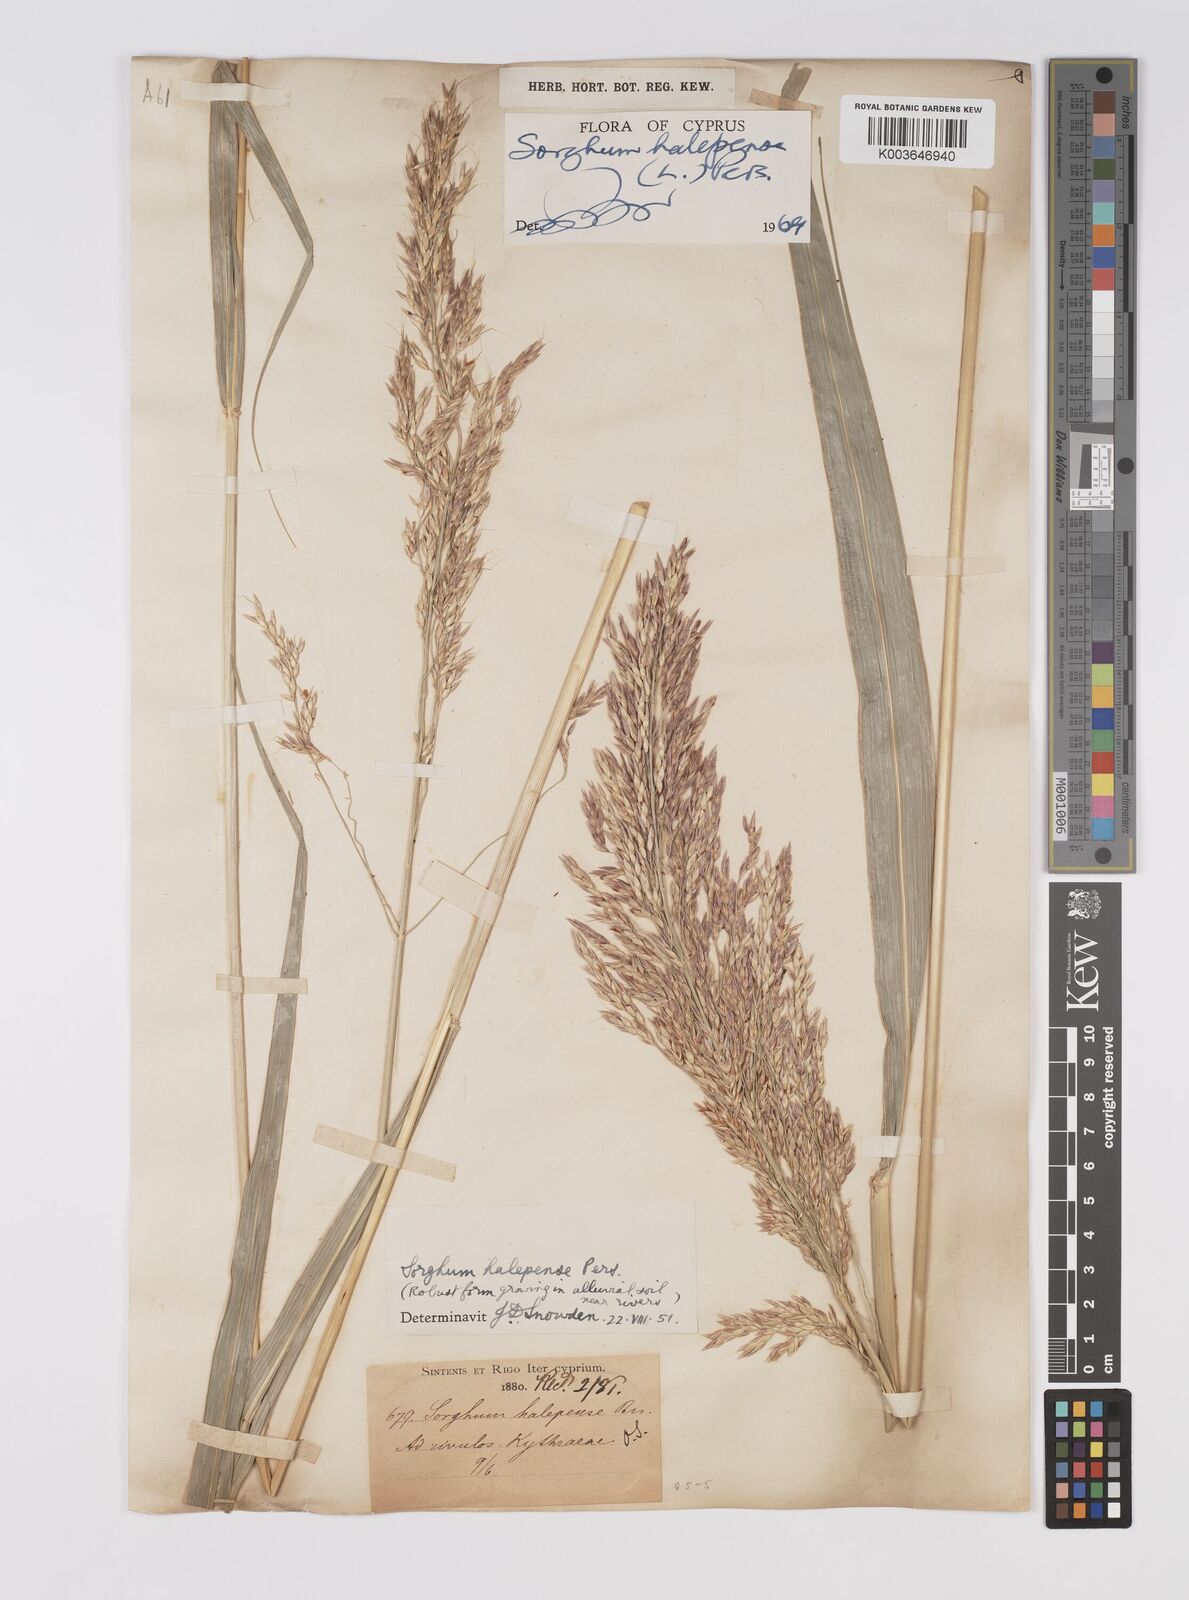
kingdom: Plantae
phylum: Tracheophyta
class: Liliopsida
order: Poales
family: Poaceae
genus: Sorghum
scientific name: Sorghum halepense
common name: Johnson-grass
